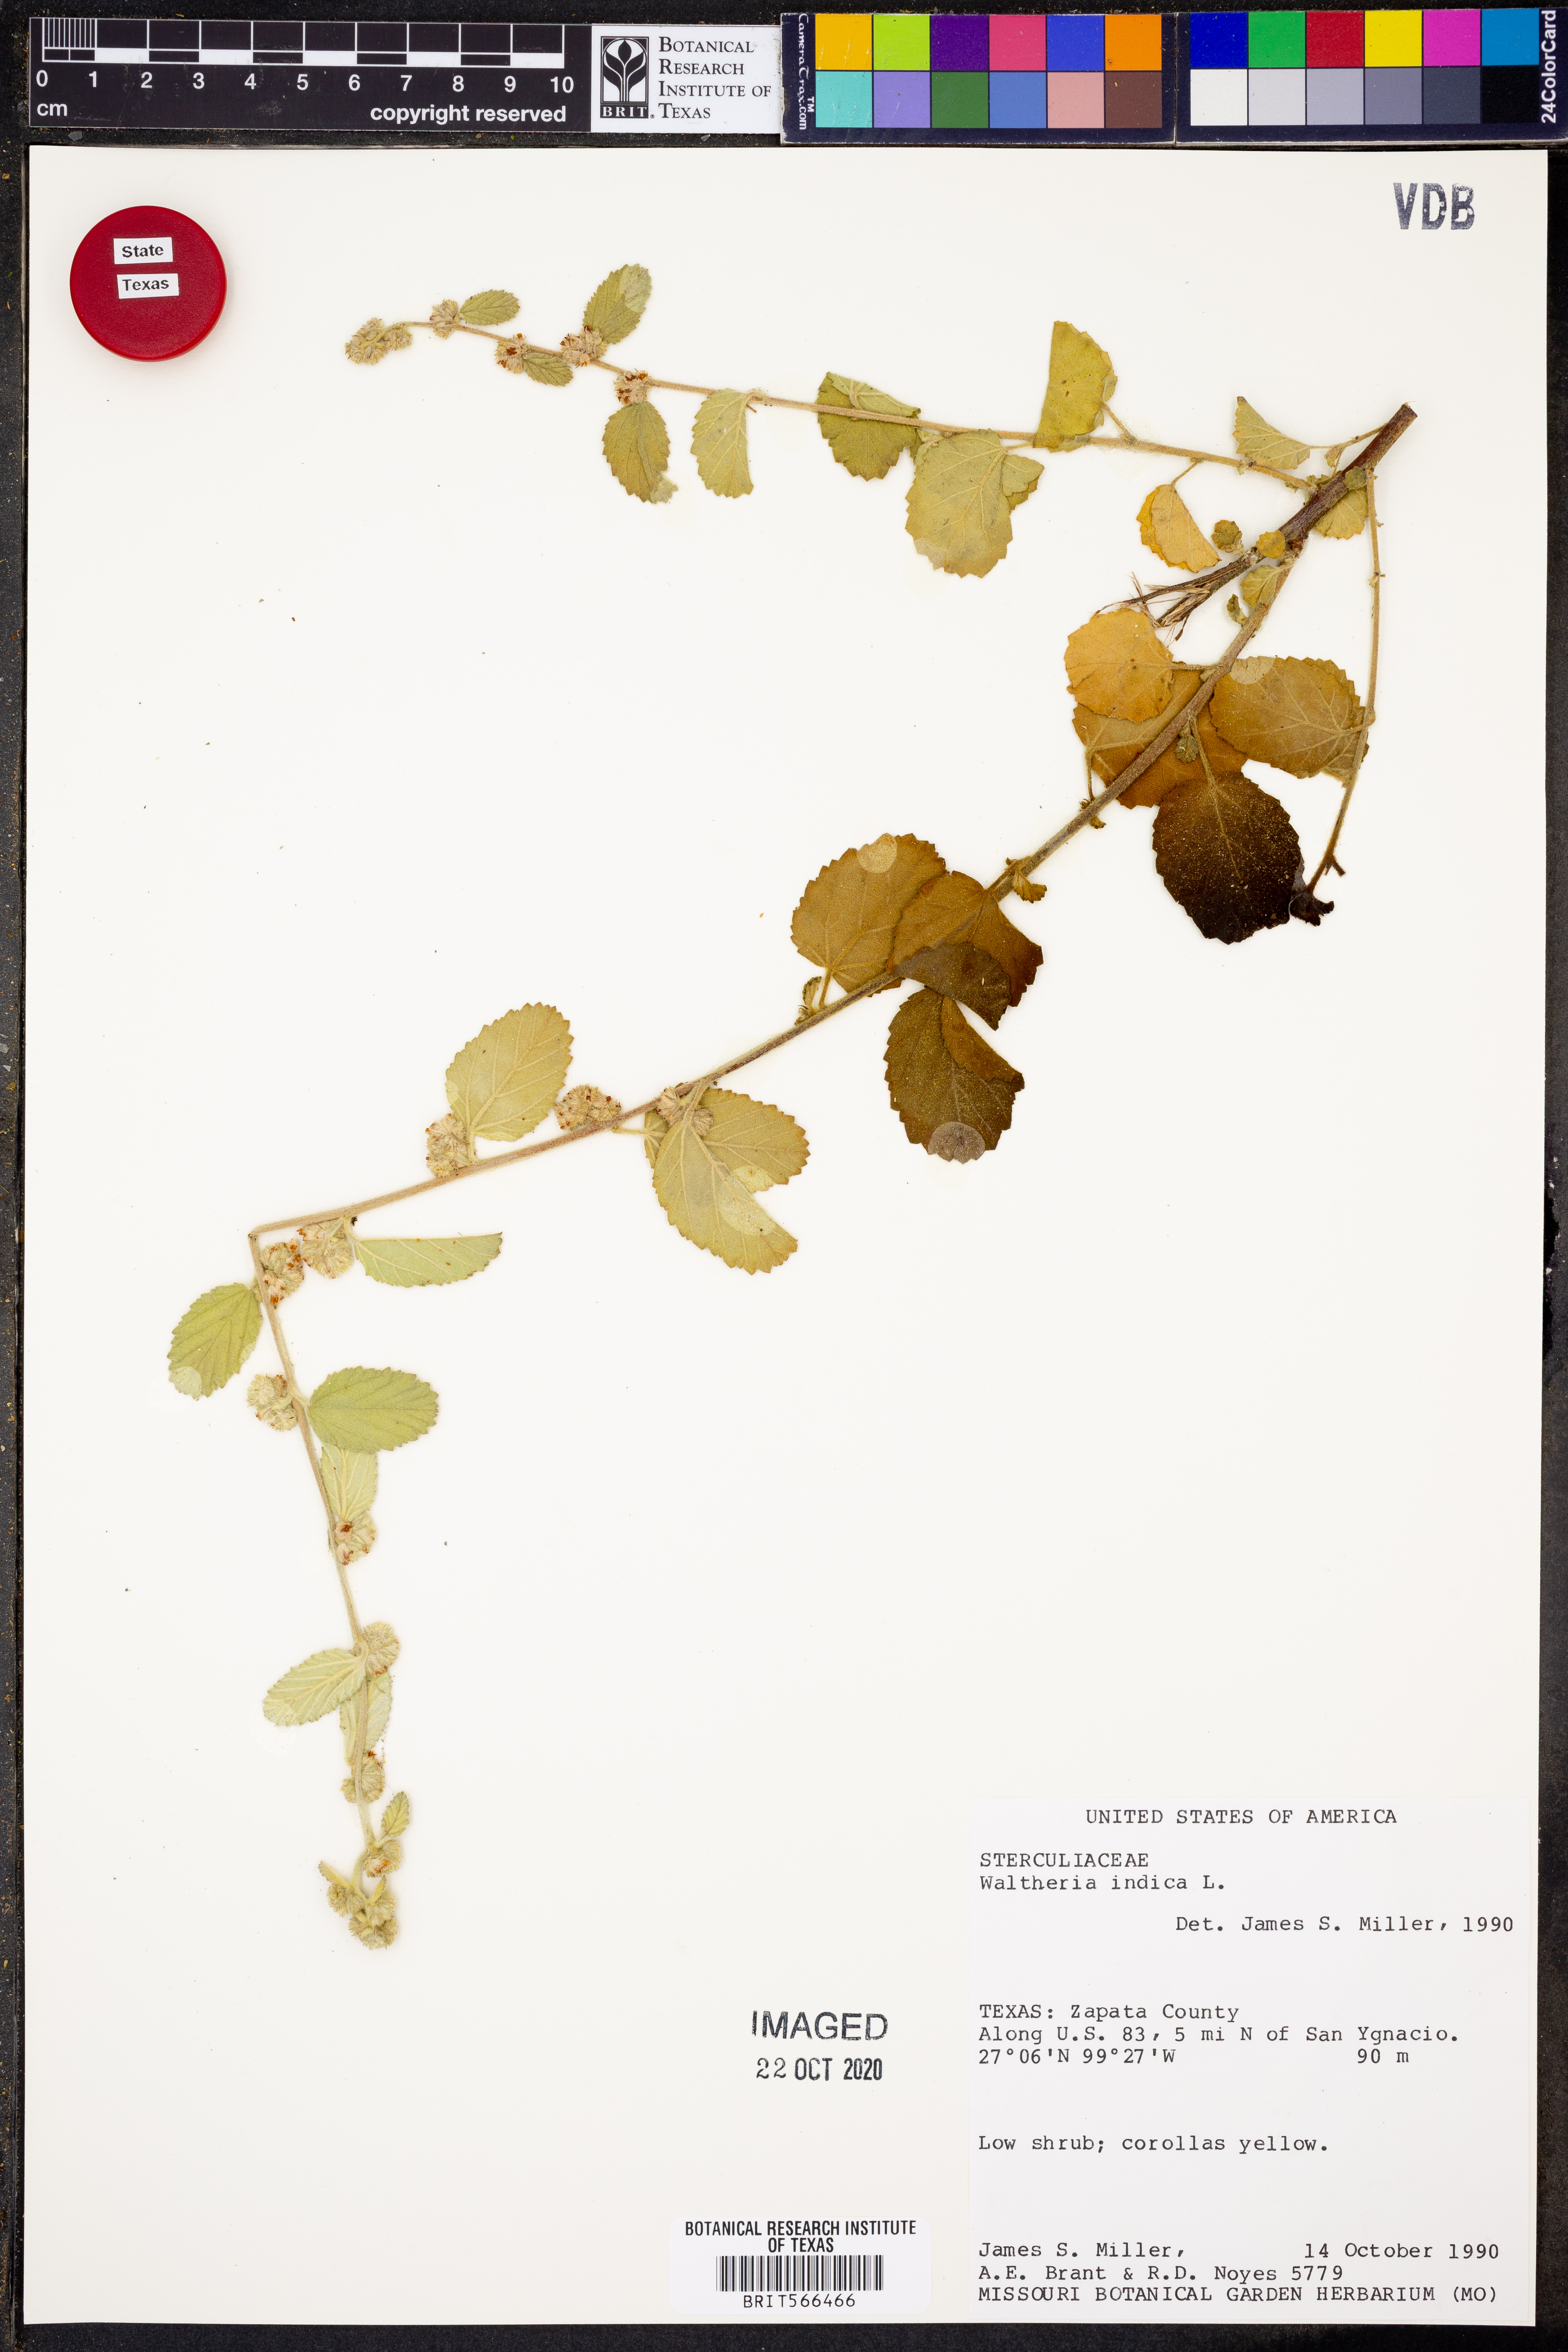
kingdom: Plantae
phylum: Tracheophyta
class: Magnoliopsida
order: Malvales
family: Malvaceae
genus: Waltheria
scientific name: Waltheria indica
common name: Leather-coat
